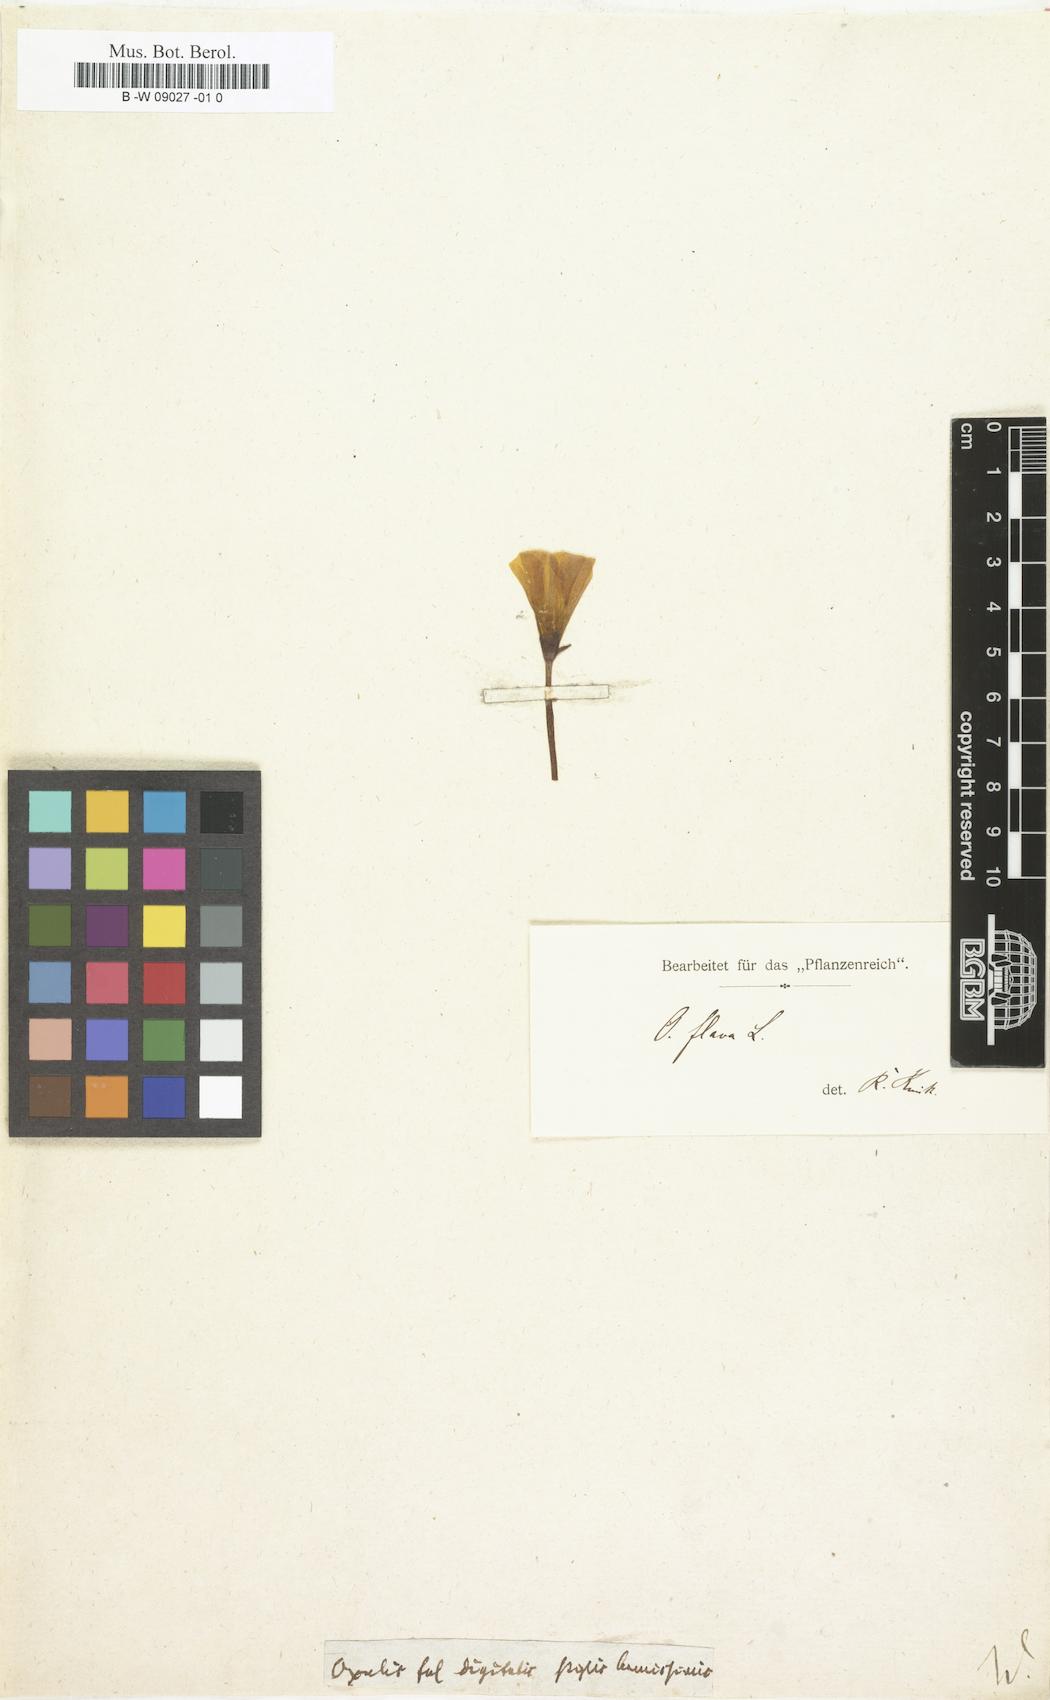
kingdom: Plantae
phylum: Tracheophyta
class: Magnoliopsida
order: Oxalidales
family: Oxalidaceae
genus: Oxalis
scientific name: Oxalis
